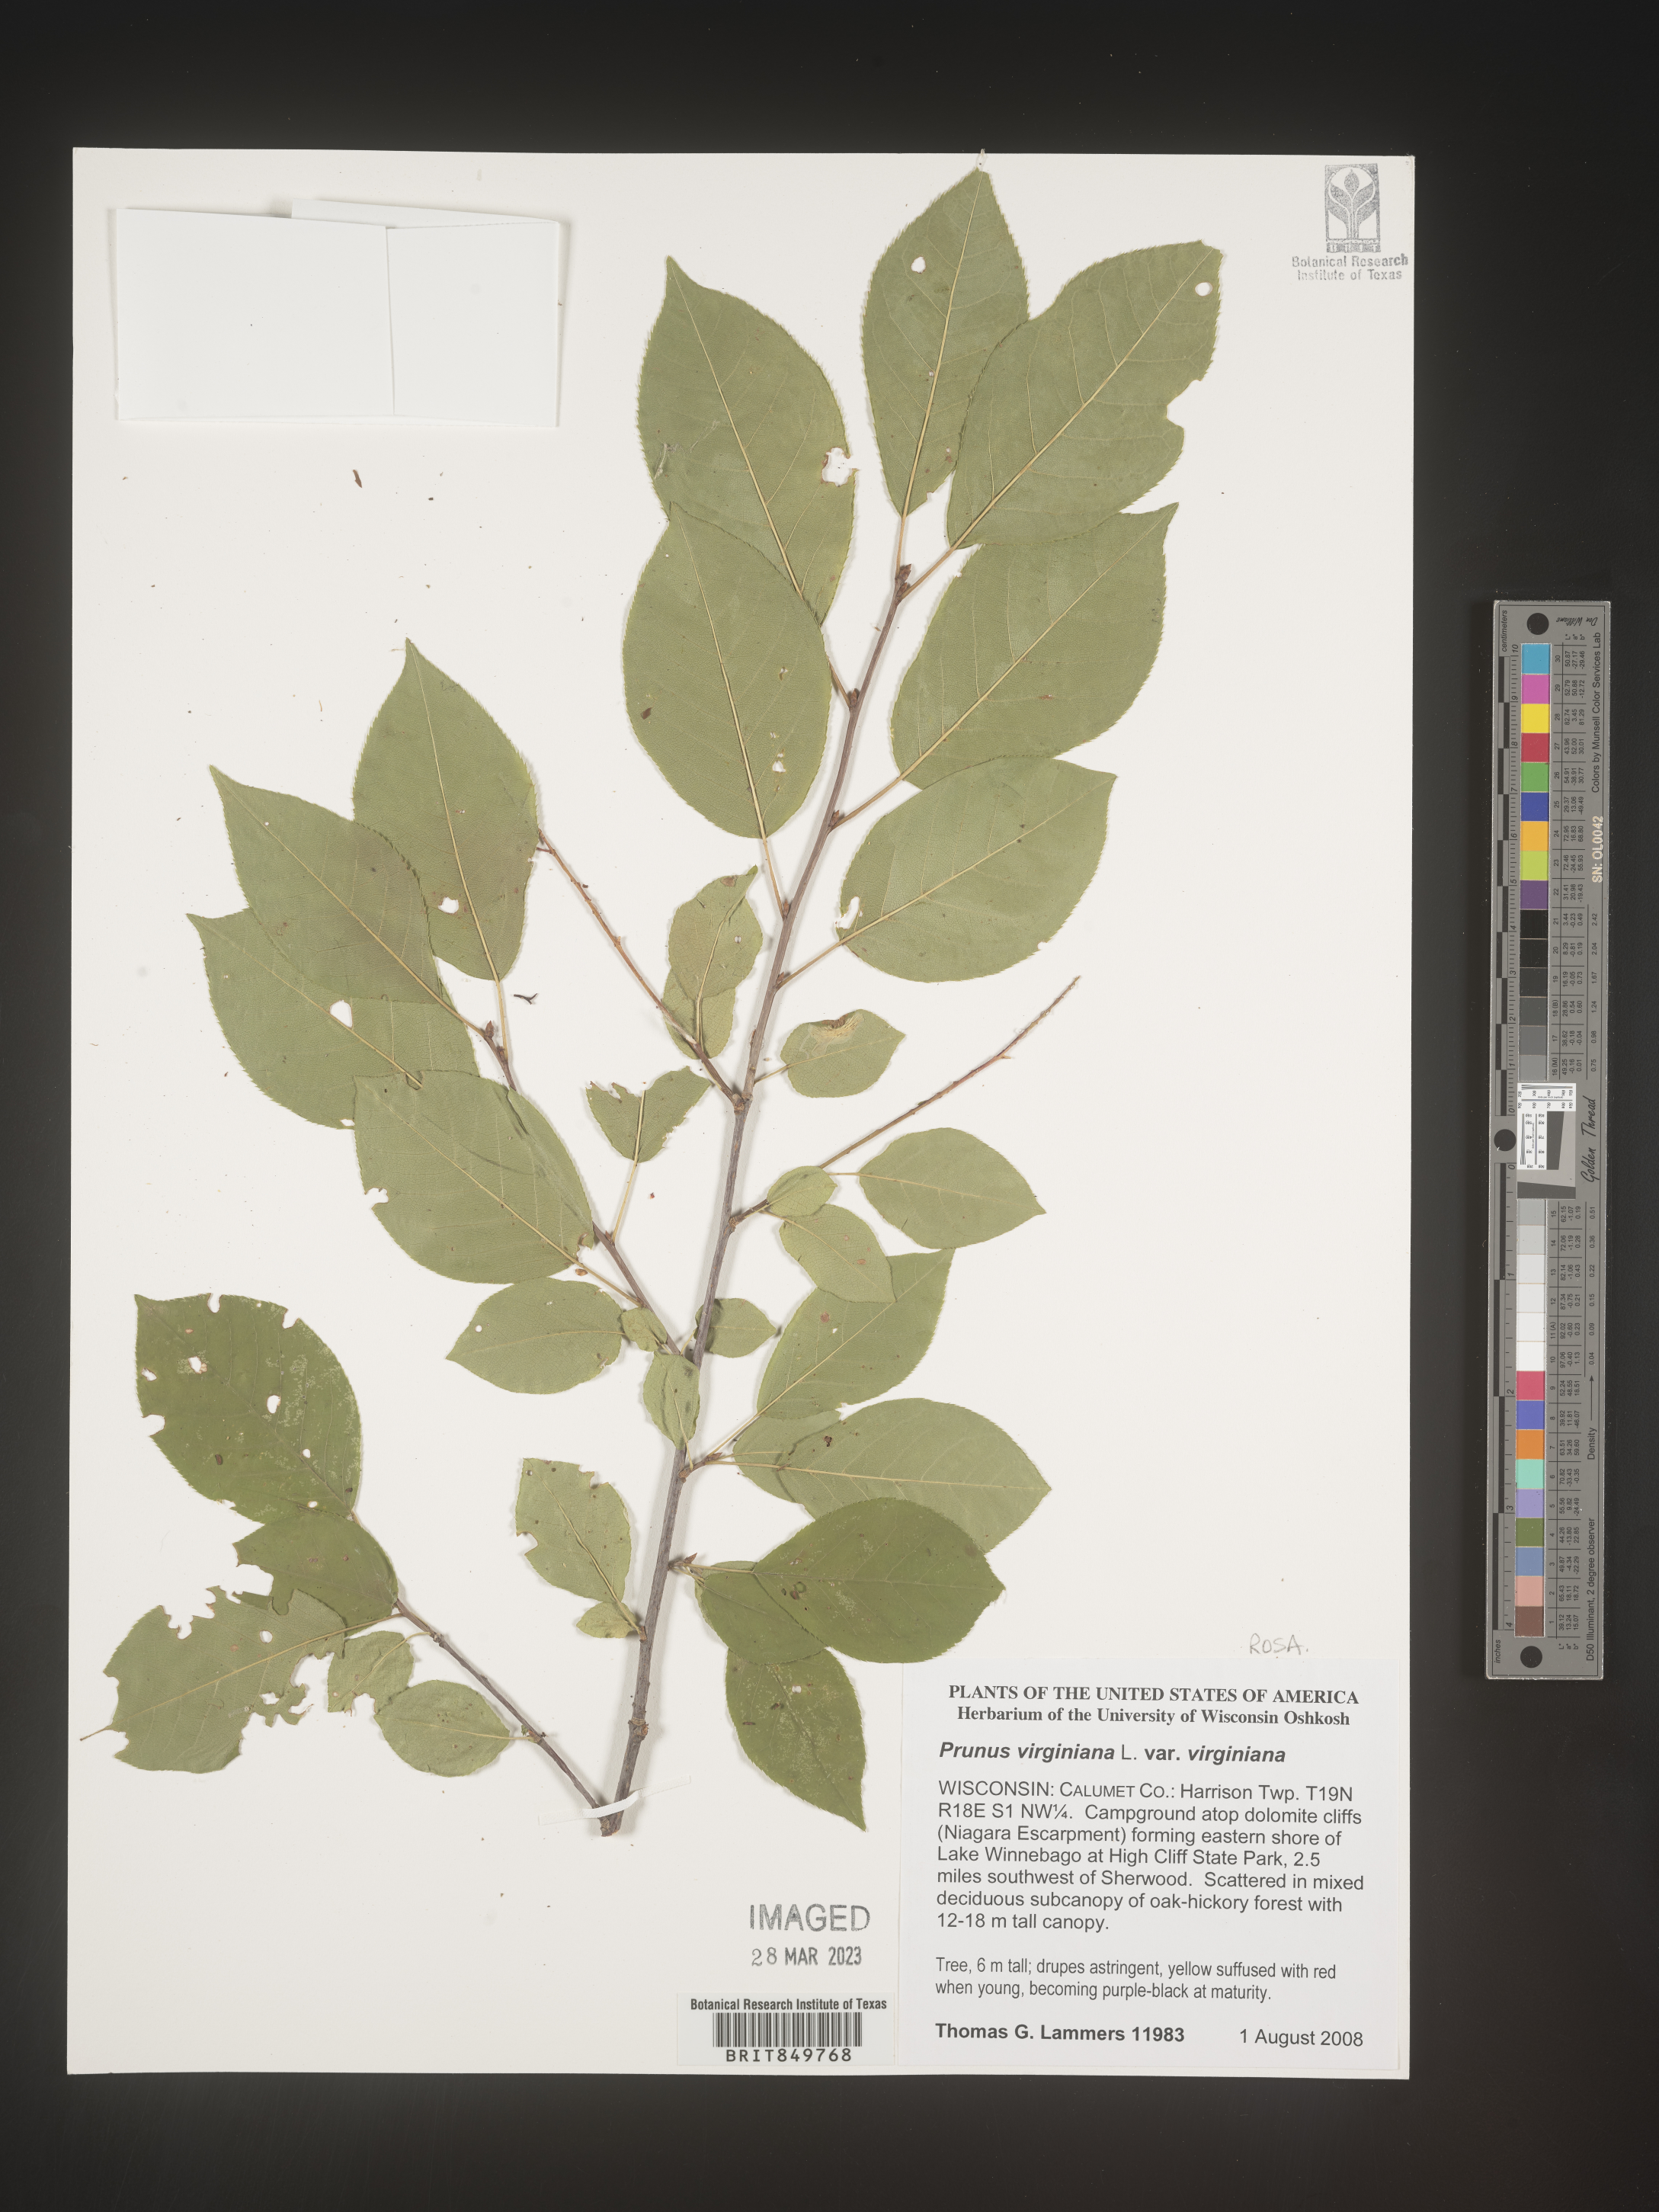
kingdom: Plantae
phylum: Tracheophyta
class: Magnoliopsida
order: Rosales
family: Rosaceae
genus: Prunus
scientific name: Prunus virginiana
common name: Chokecherry
